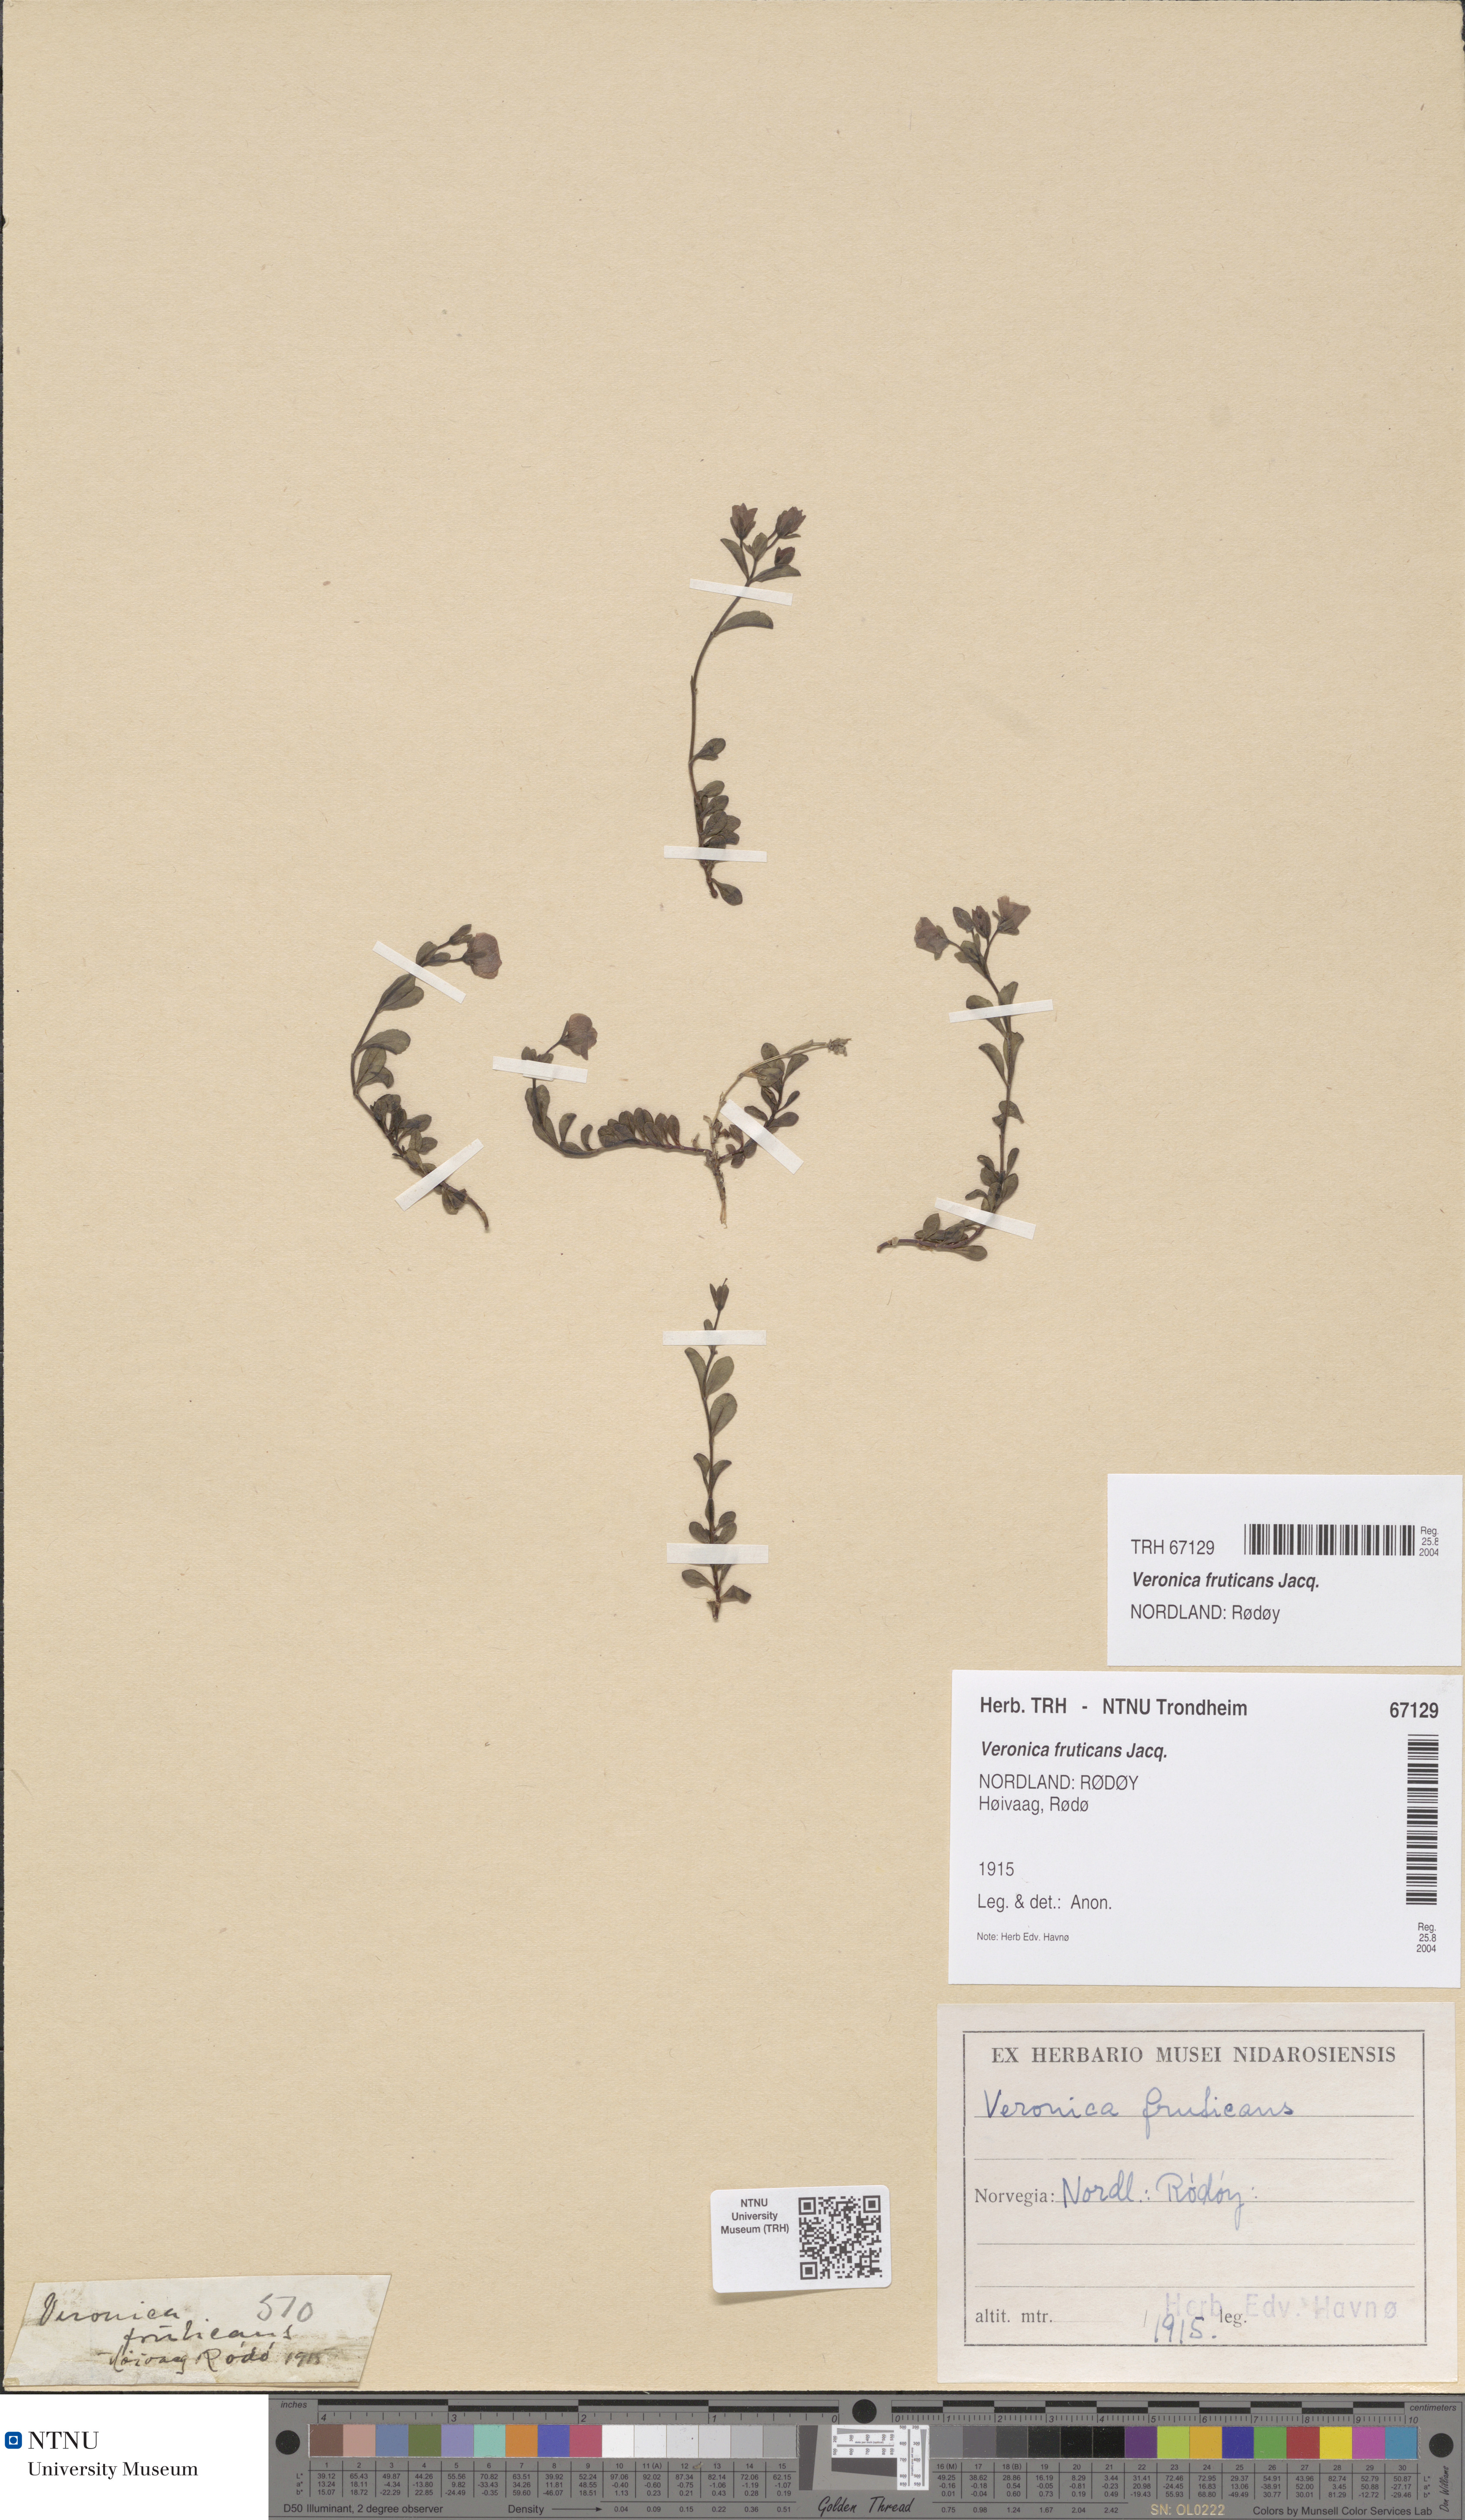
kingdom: Plantae
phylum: Tracheophyta
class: Magnoliopsida
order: Lamiales
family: Plantaginaceae
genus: Veronica
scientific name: Veronica fruticans
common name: Rock speedwell
